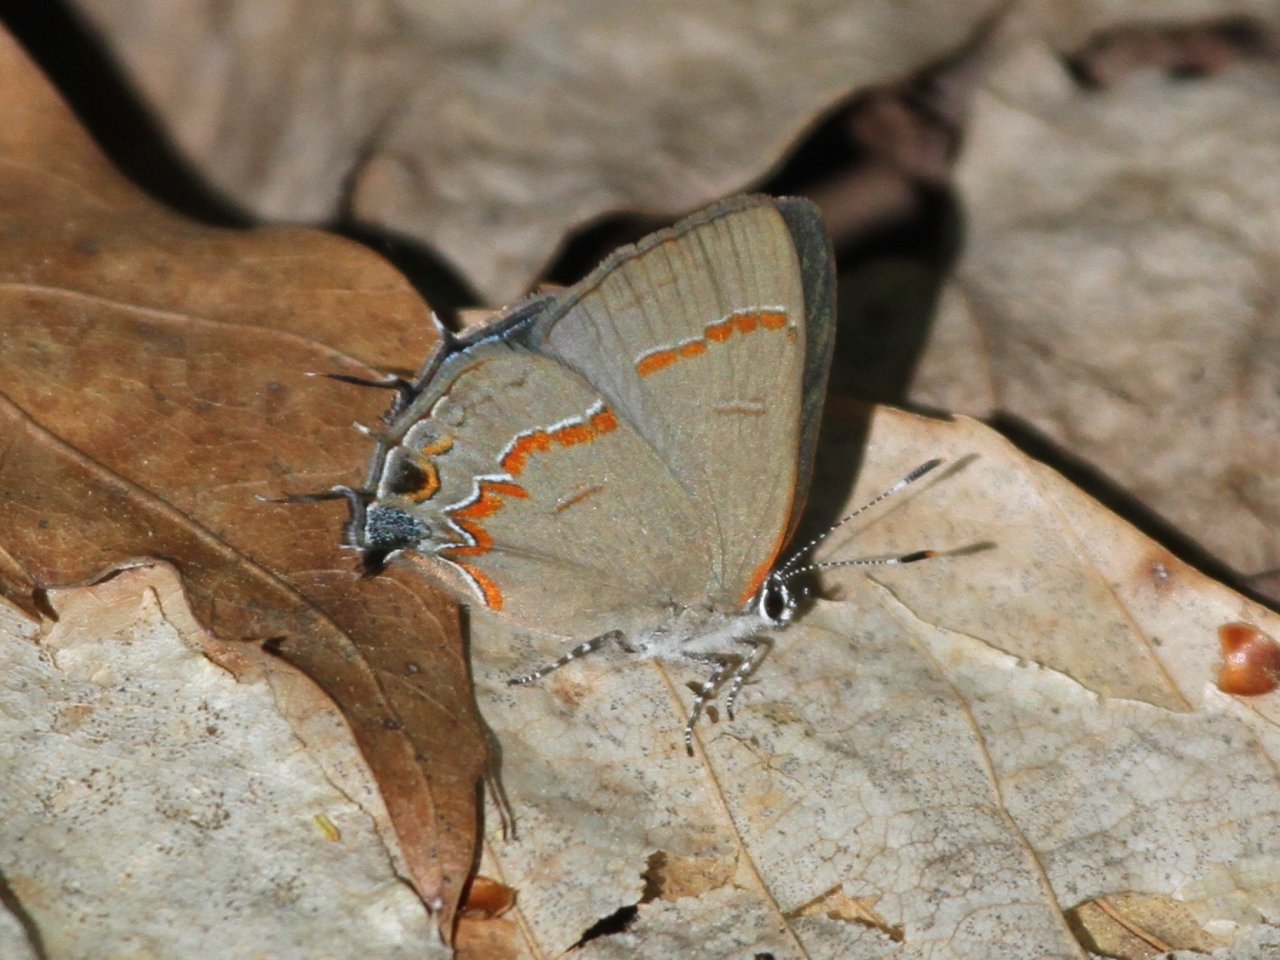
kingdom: Animalia
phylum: Arthropoda
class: Insecta
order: Lepidoptera
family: Lycaenidae
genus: Calycopis
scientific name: Calycopis cecrops
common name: Red-banded Hairstreak
